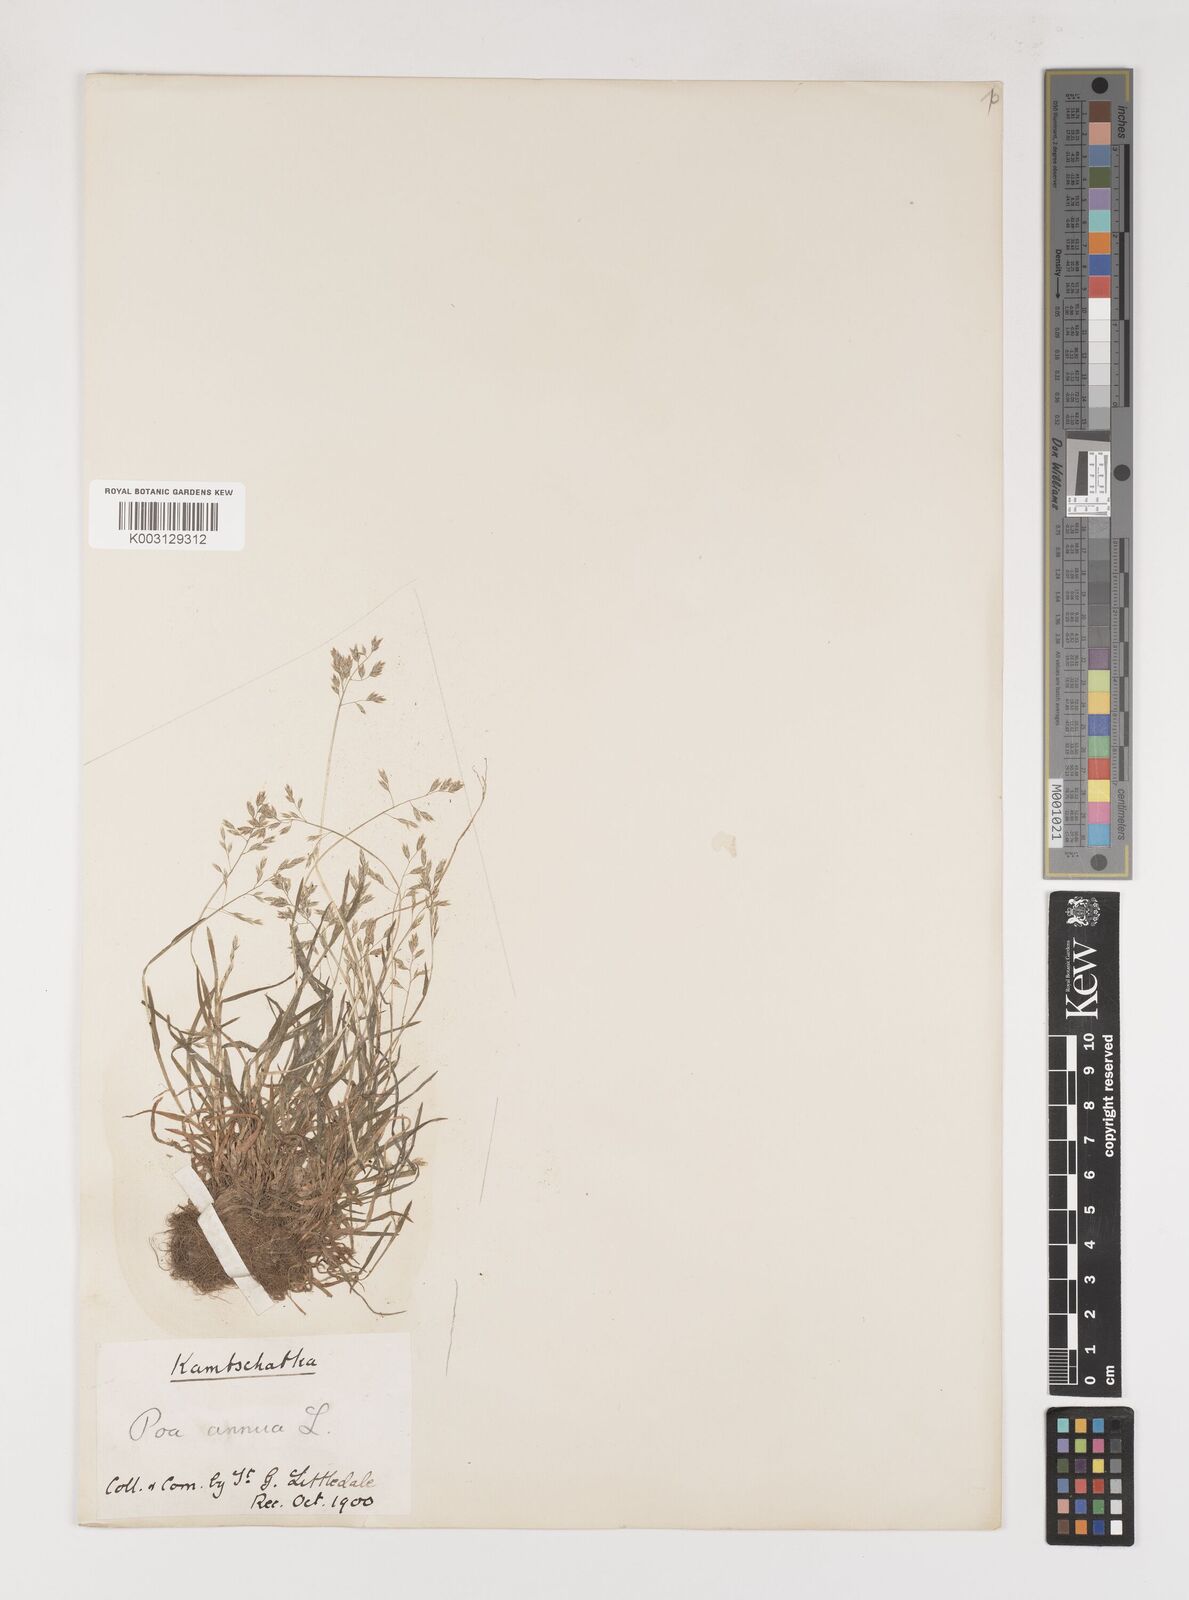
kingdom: Plantae
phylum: Tracheophyta
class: Liliopsida
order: Poales
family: Poaceae
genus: Poa
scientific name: Poa annua
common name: Annual bluegrass
